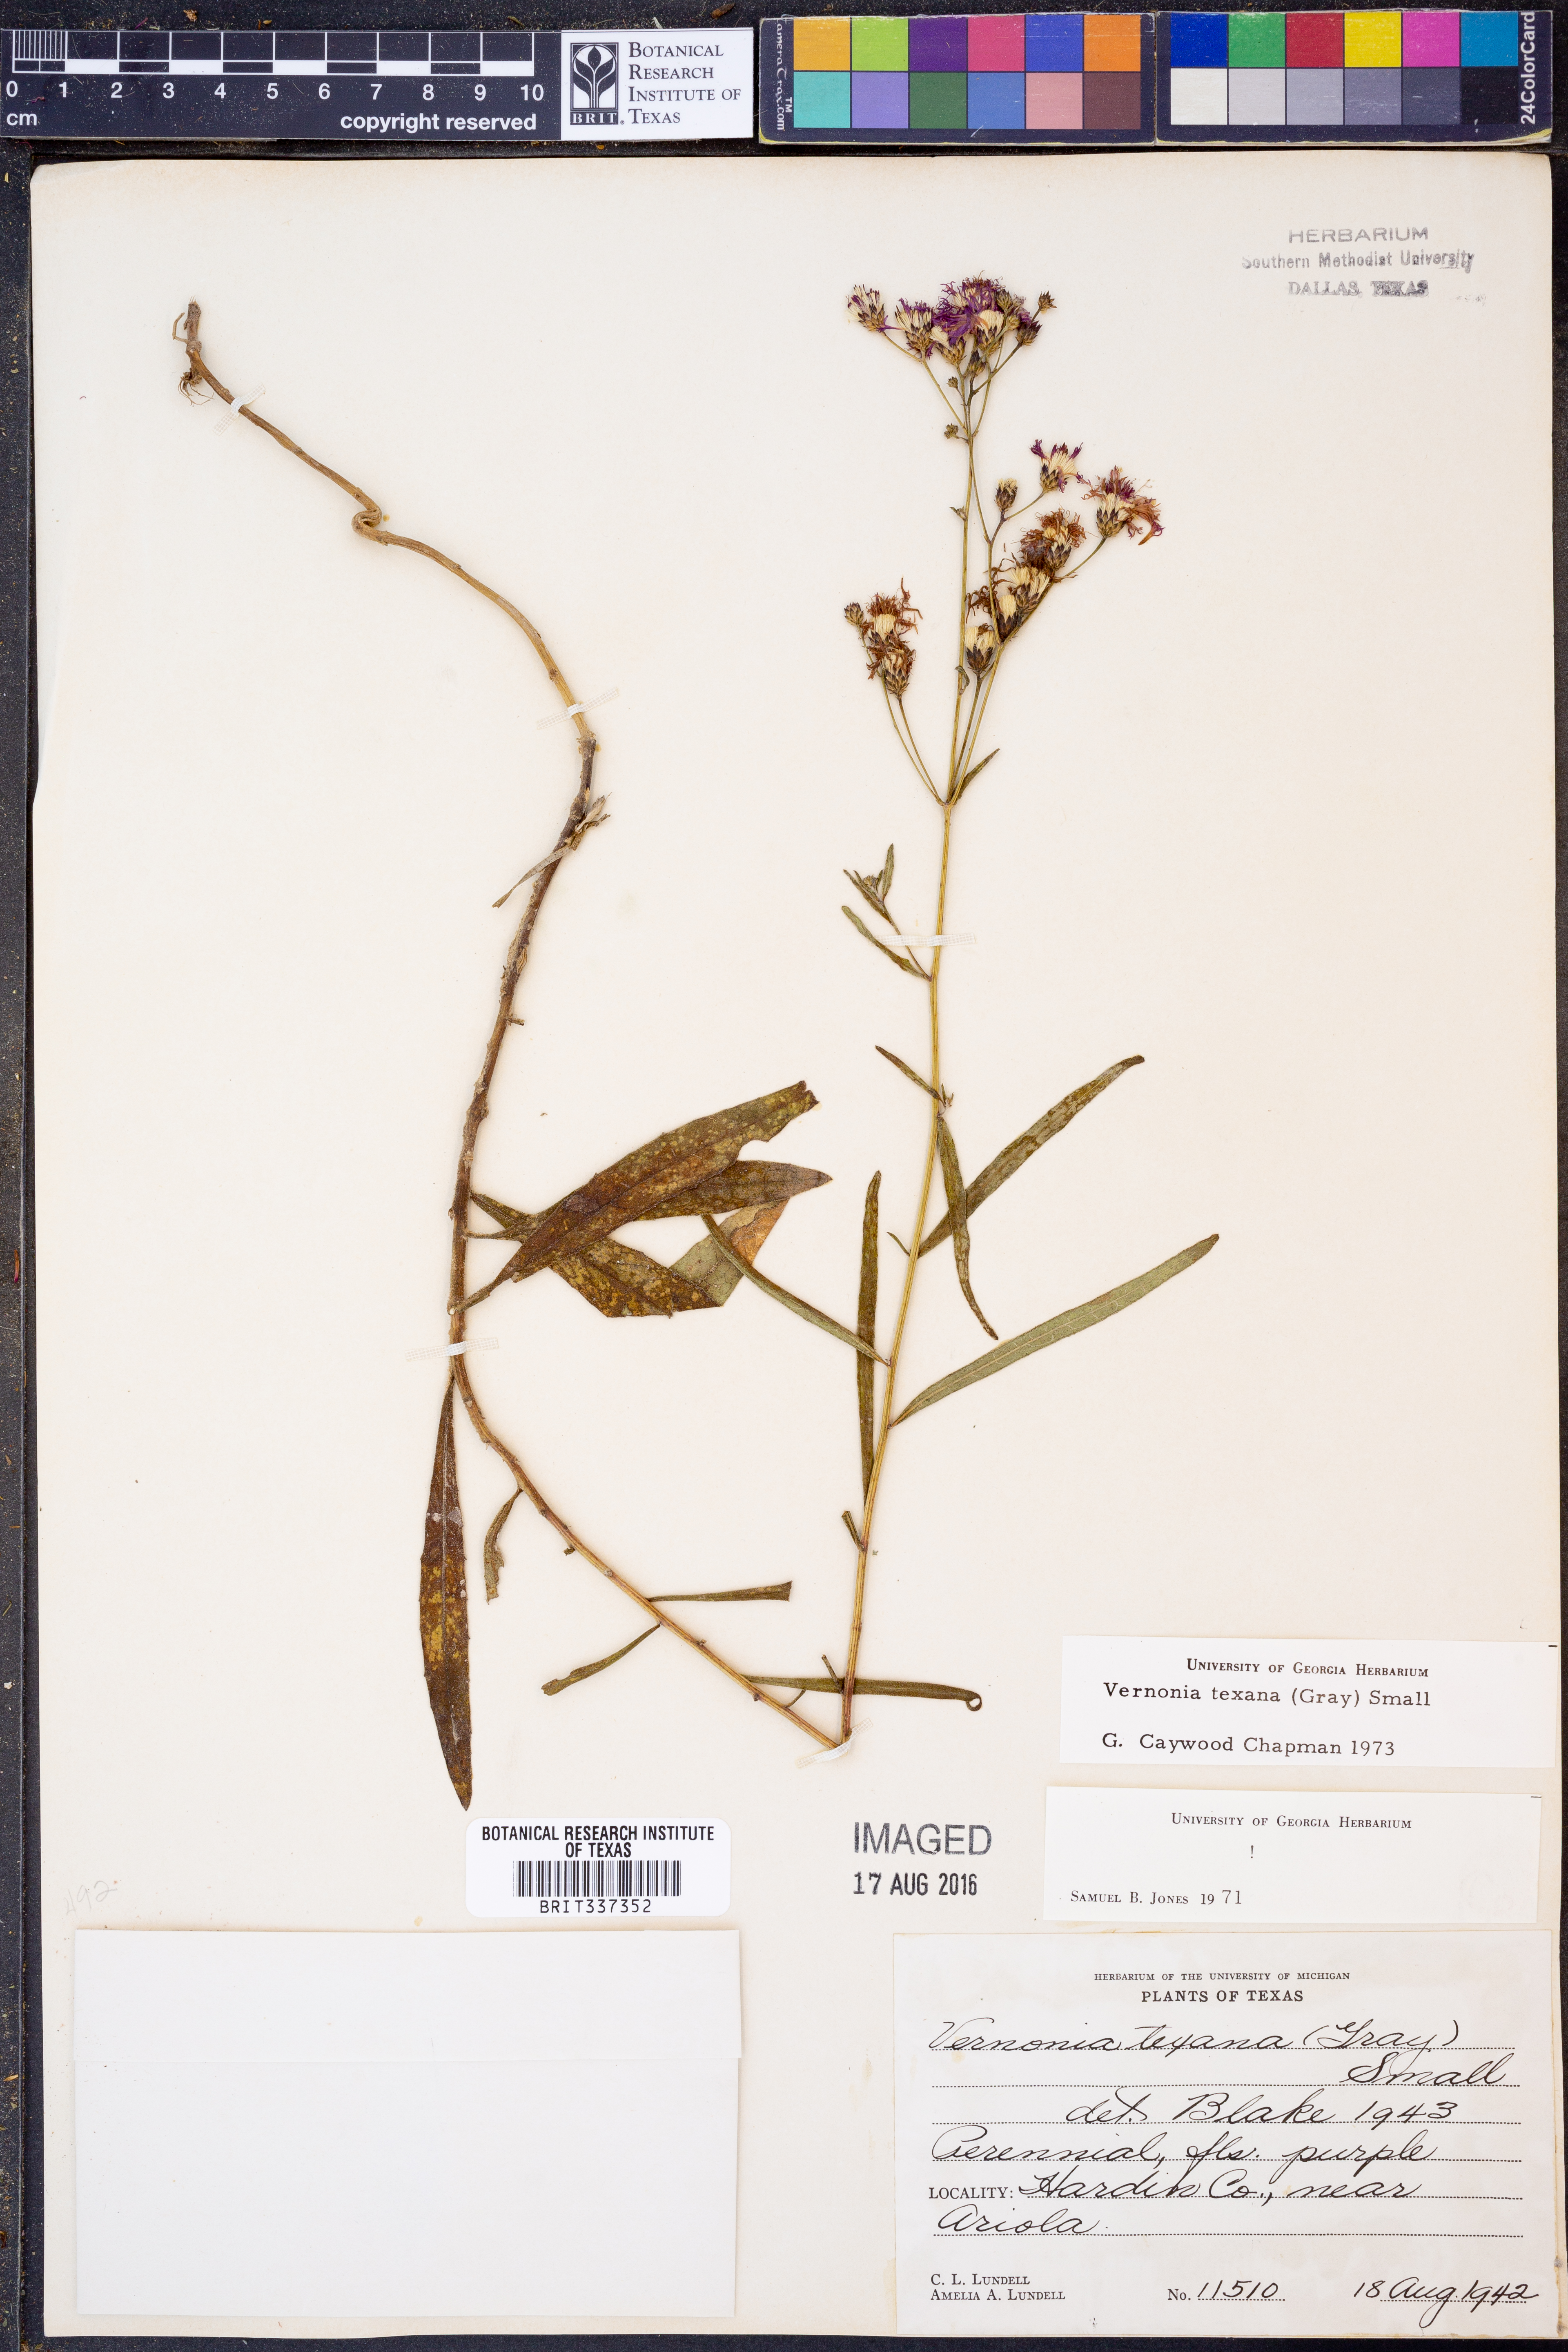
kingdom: Plantae
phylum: Tracheophyta
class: Magnoliopsida
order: Asterales
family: Asteraceae
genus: Vernonia
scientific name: Vernonia texana
